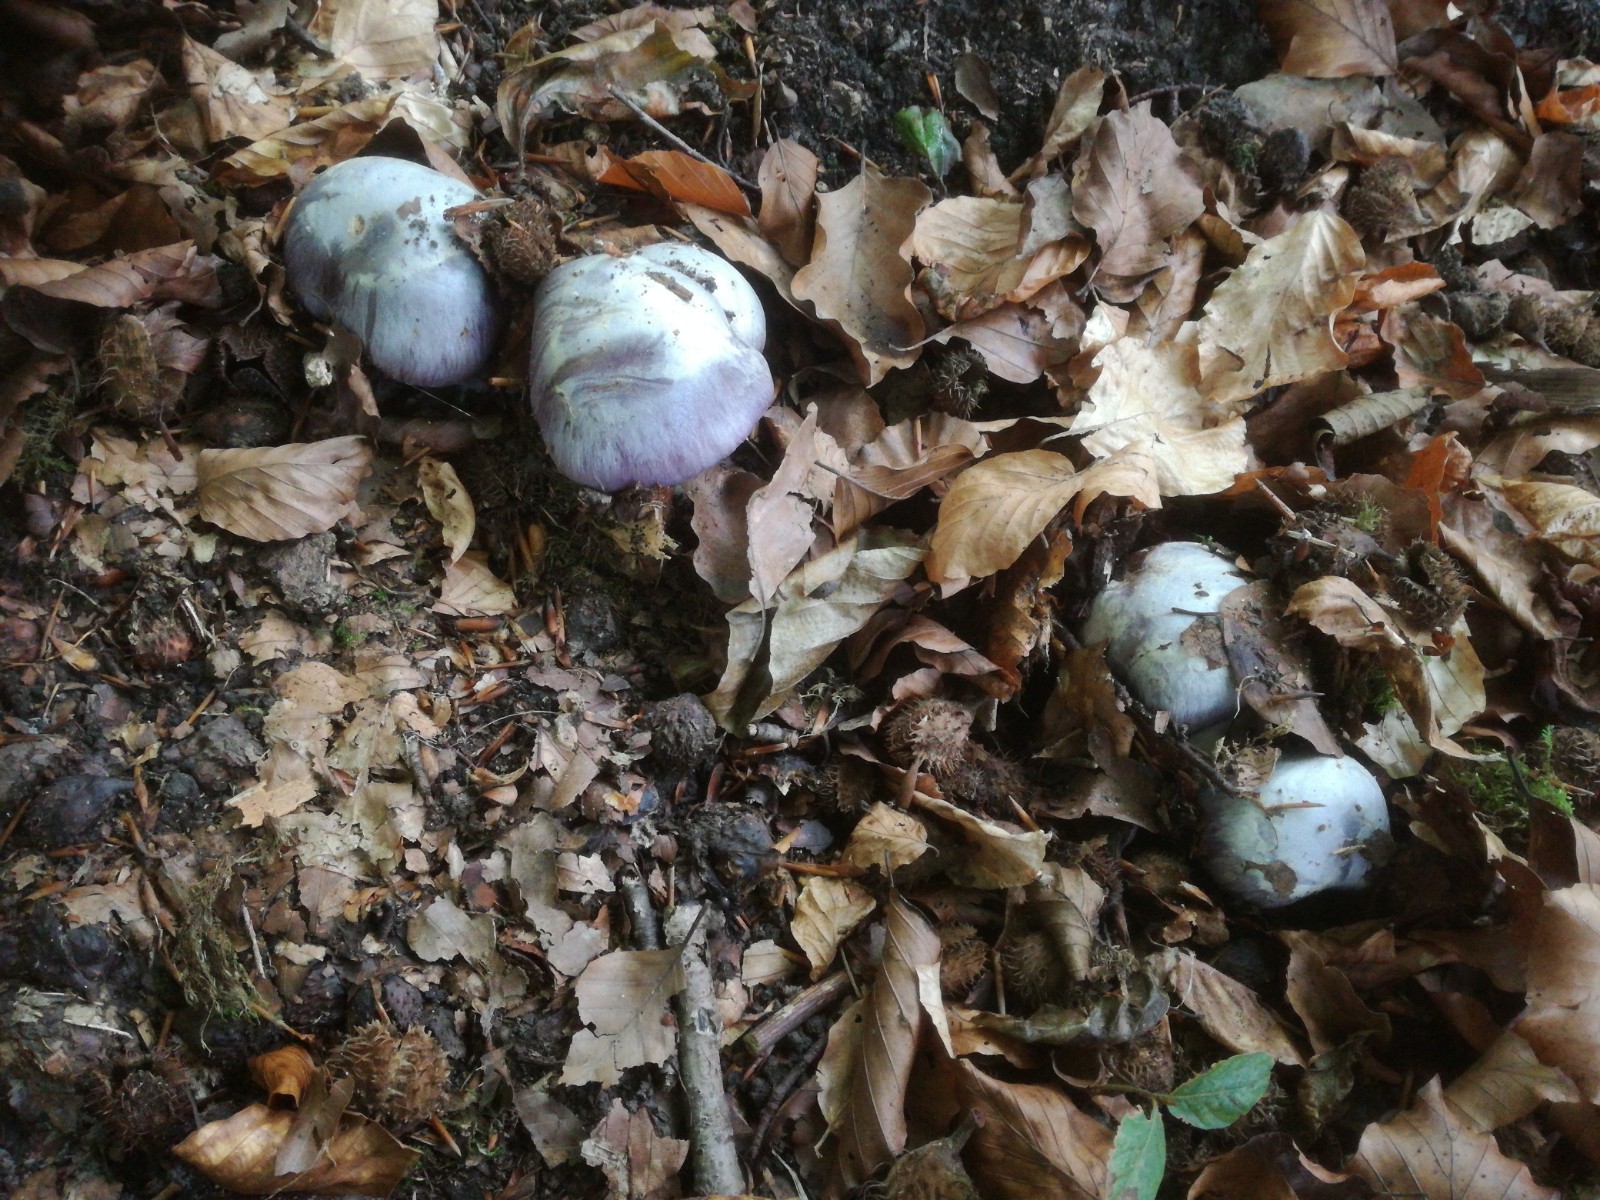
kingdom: Fungi
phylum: Basidiomycota
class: Agaricomycetes
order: Agaricales
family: Cortinariaceae
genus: Cortinarius
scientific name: Cortinarius caerulescens
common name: blåkødet slørhat
